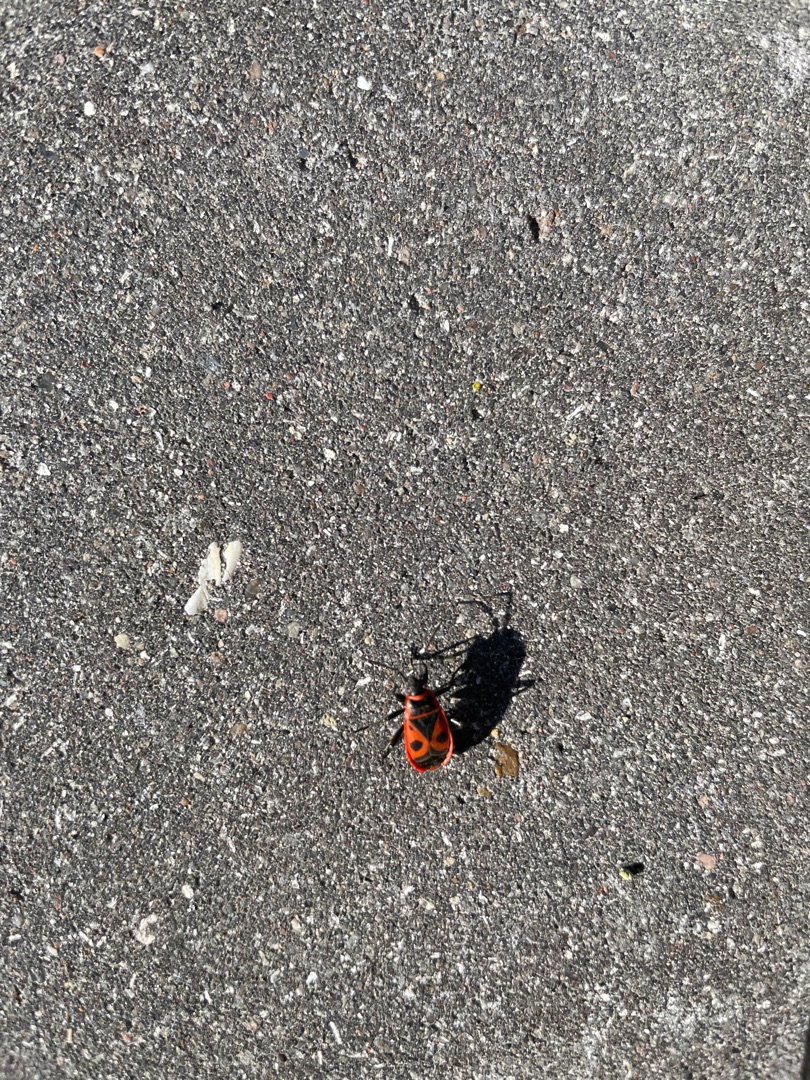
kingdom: Animalia
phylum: Arthropoda
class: Insecta
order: Hemiptera
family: Pyrrhocoridae
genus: Pyrrhocoris
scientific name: Pyrrhocoris apterus
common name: Ildtæge
